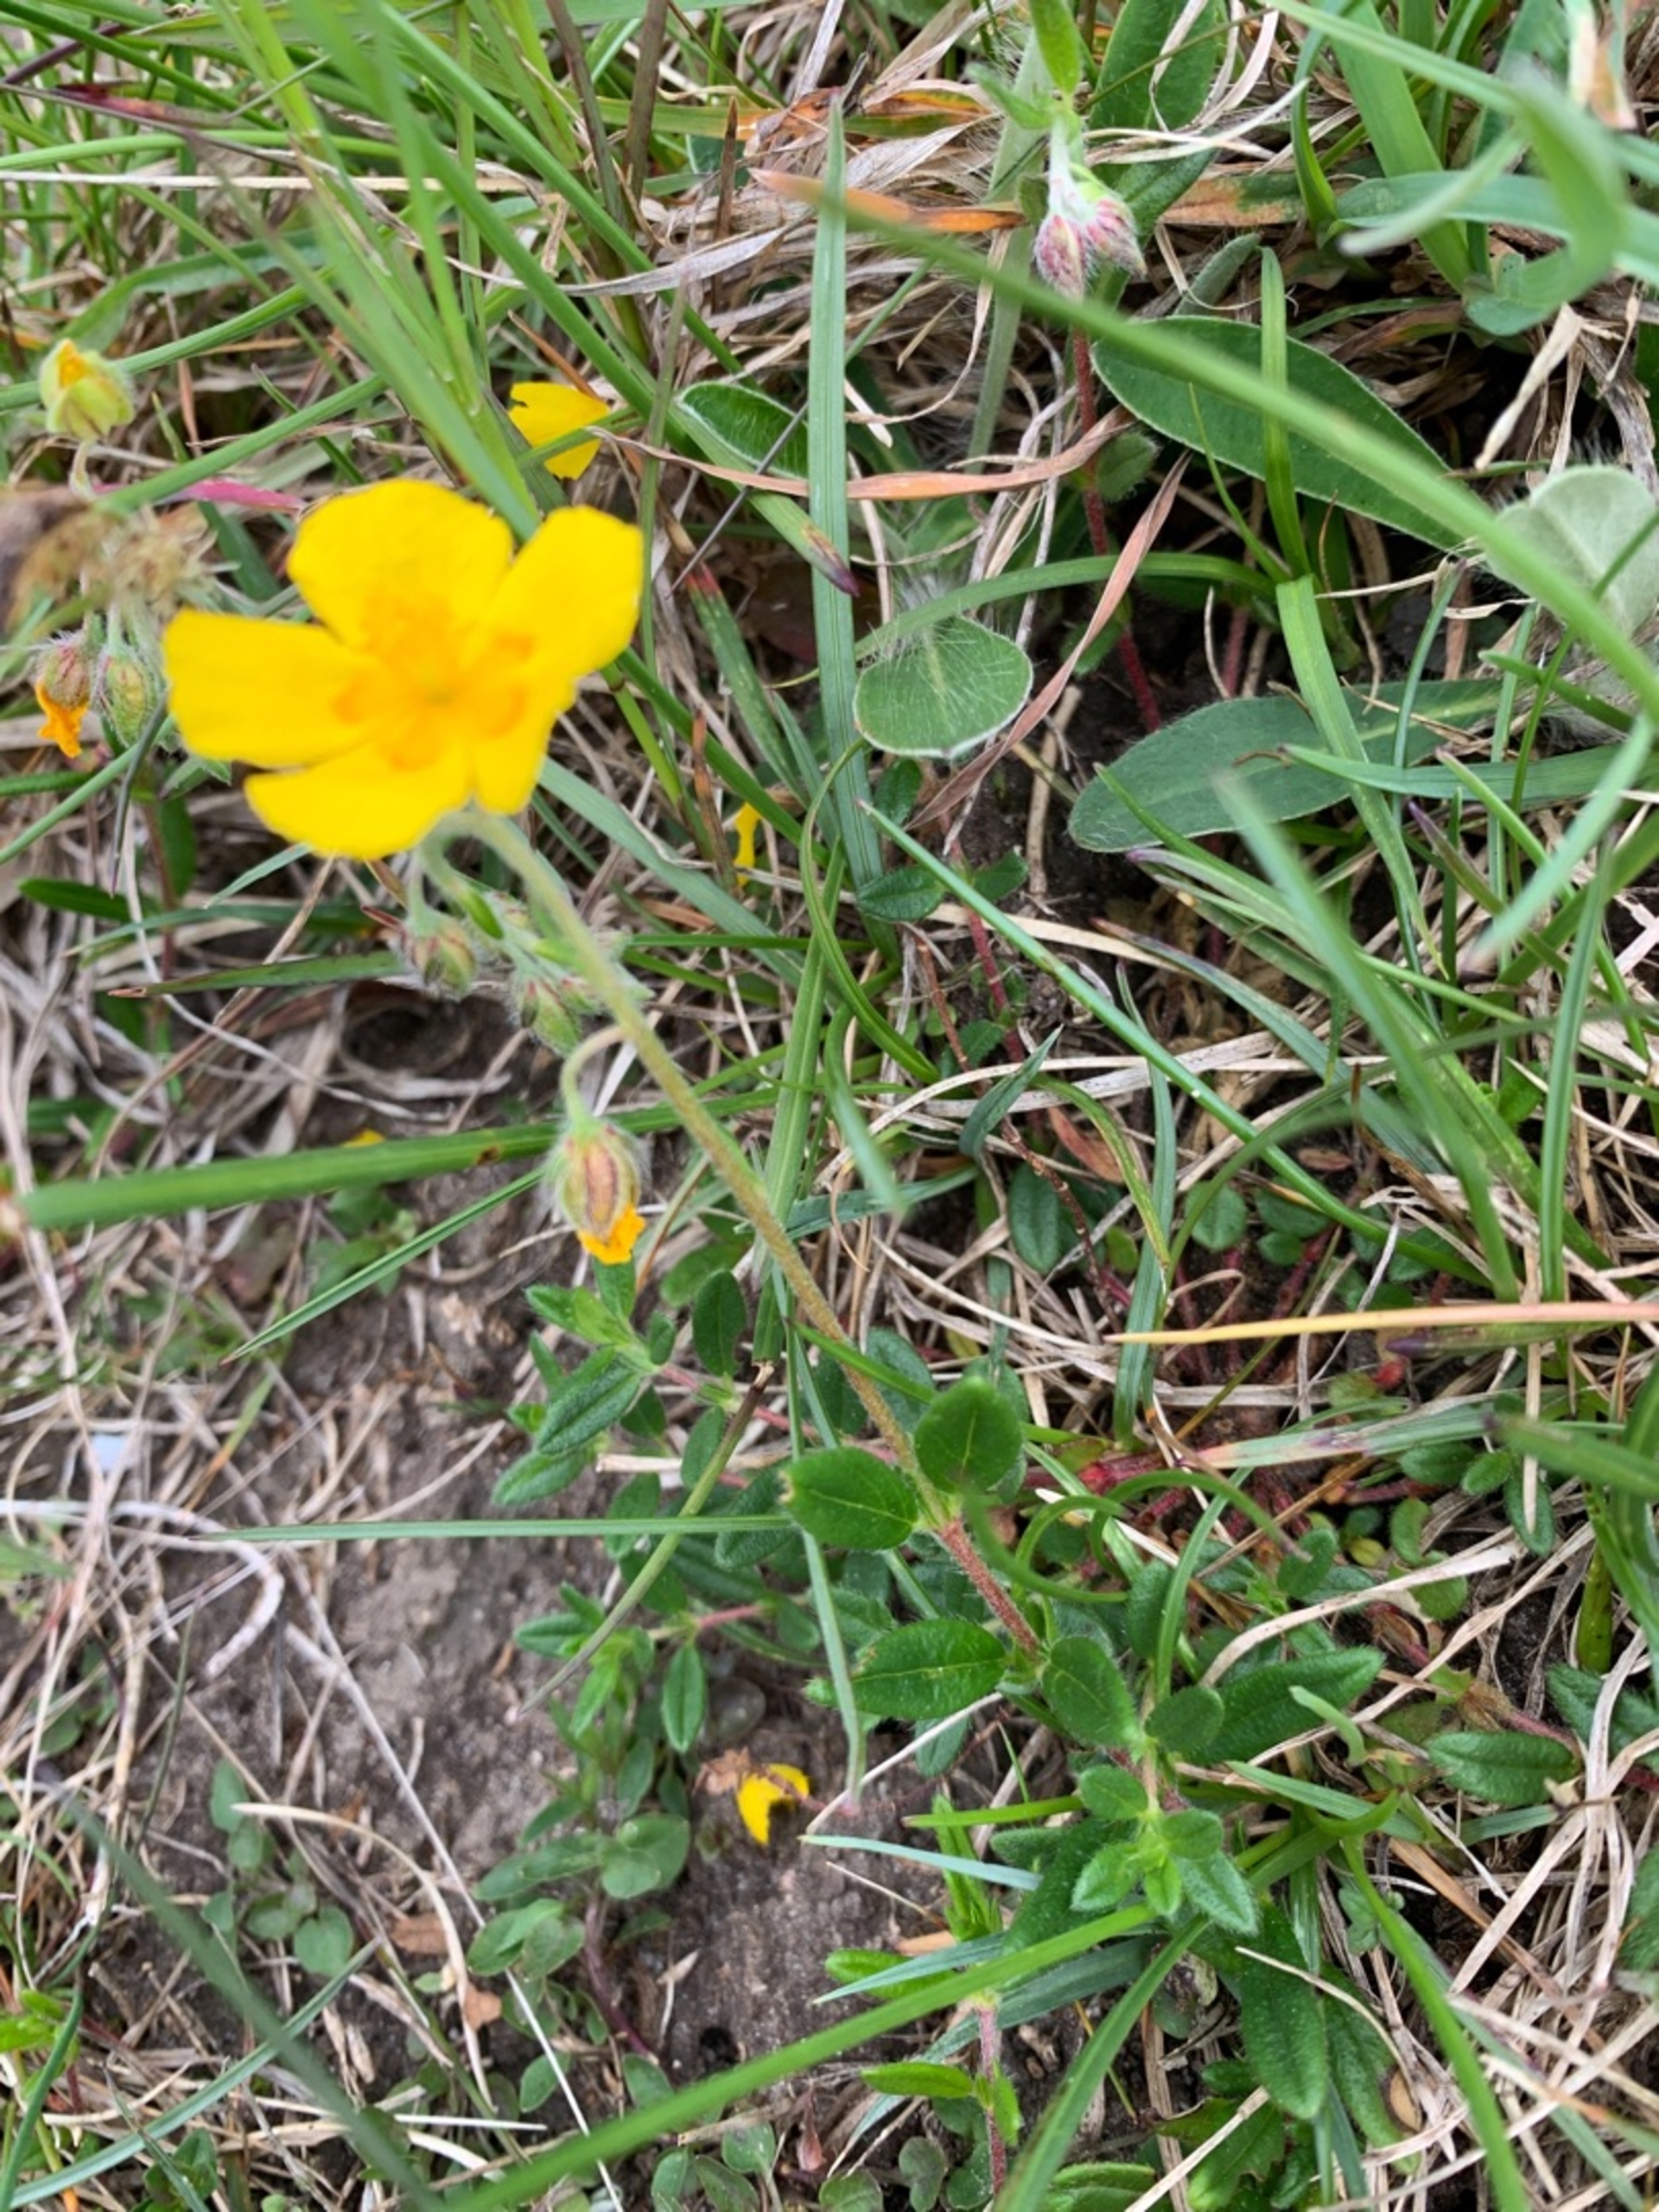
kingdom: Plantae
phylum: Tracheophyta
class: Magnoliopsida
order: Malvales
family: Cistaceae
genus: Helianthemum
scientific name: Helianthemum nummularium
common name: Soløje
